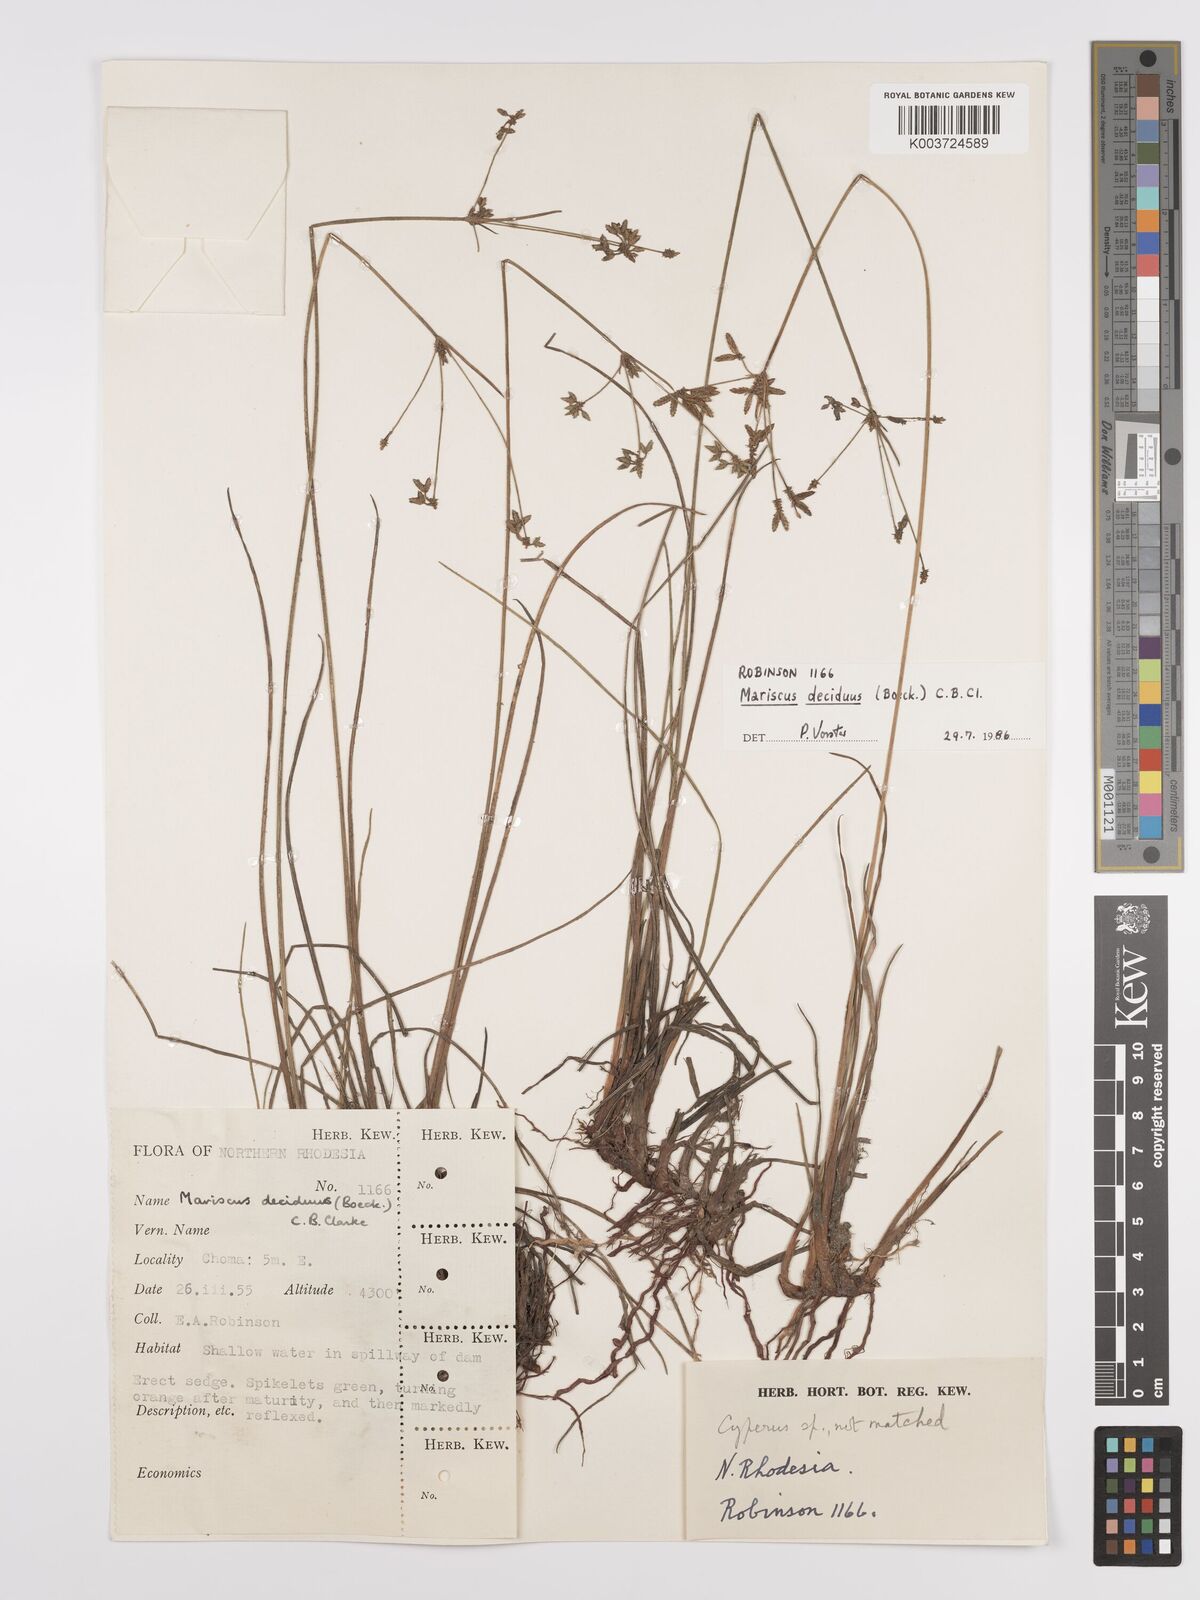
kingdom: Plantae
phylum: Tracheophyta
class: Liliopsida
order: Poales
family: Cyperaceae
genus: Cyperus
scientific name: Cyperus deciduus
